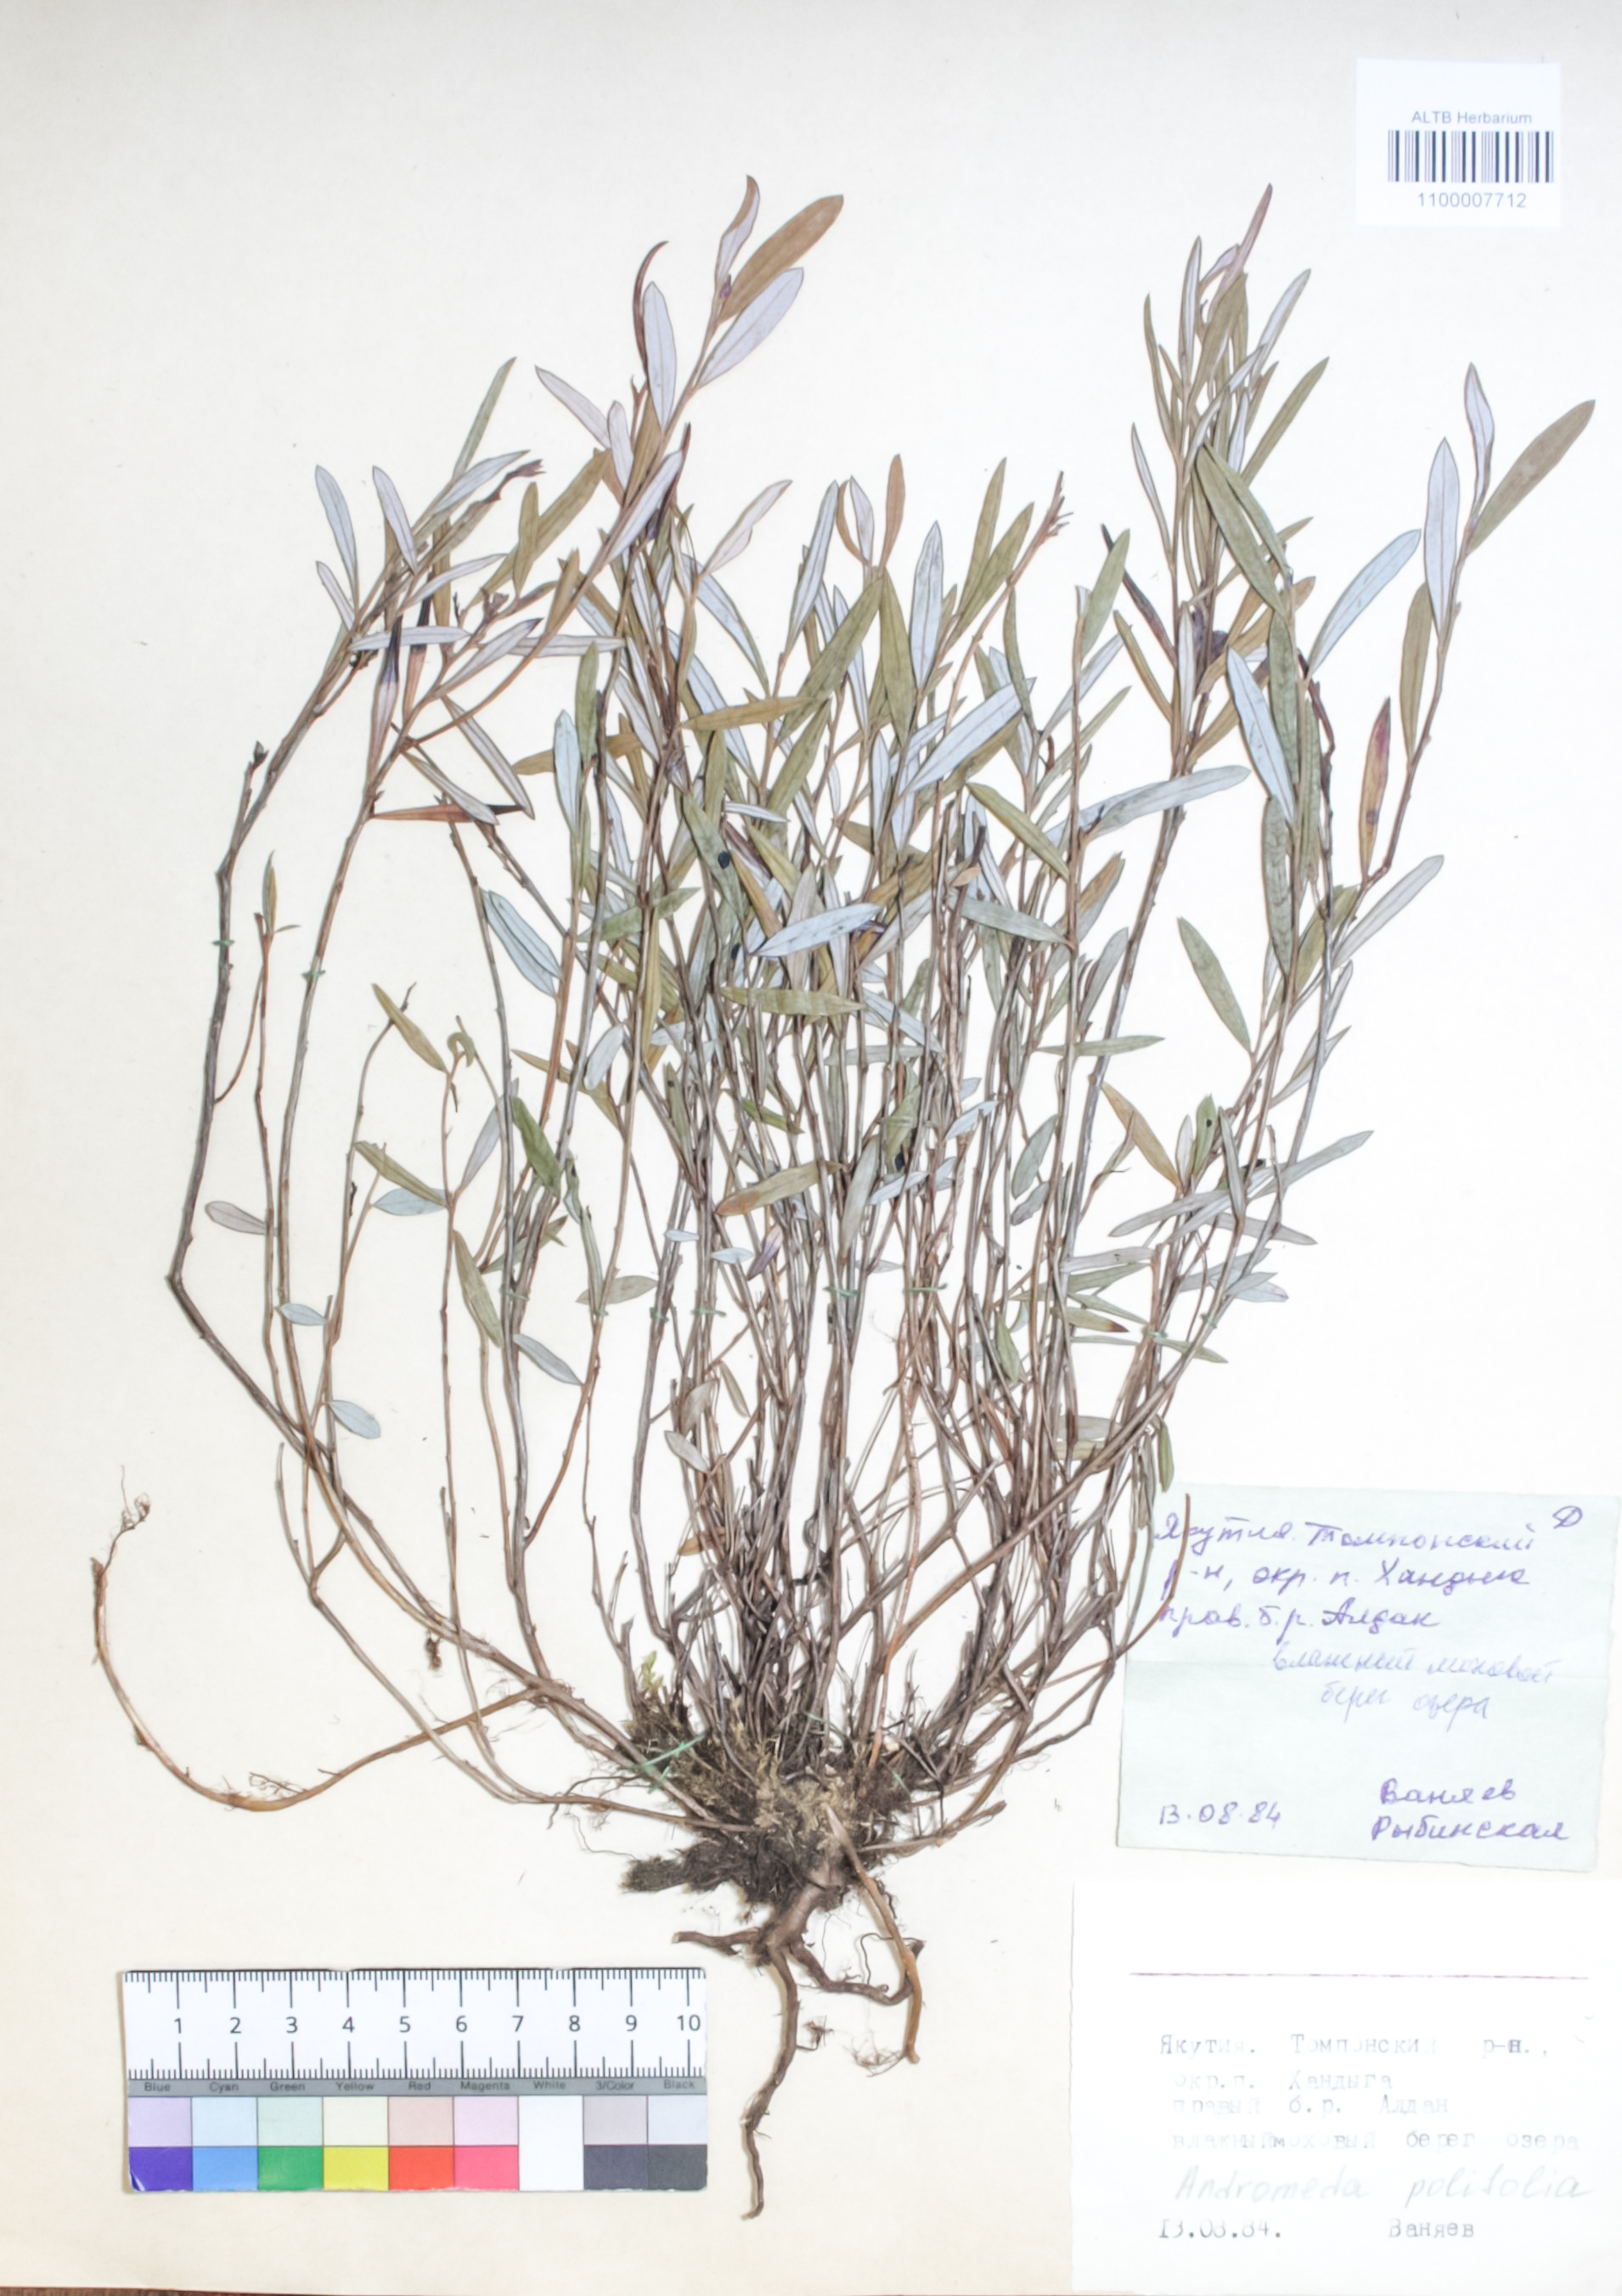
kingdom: Plantae
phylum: Tracheophyta
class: Magnoliopsida
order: Ericales
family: Ericaceae
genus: Andromeda
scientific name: Andromeda polifolia
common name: Bog-rosemary
